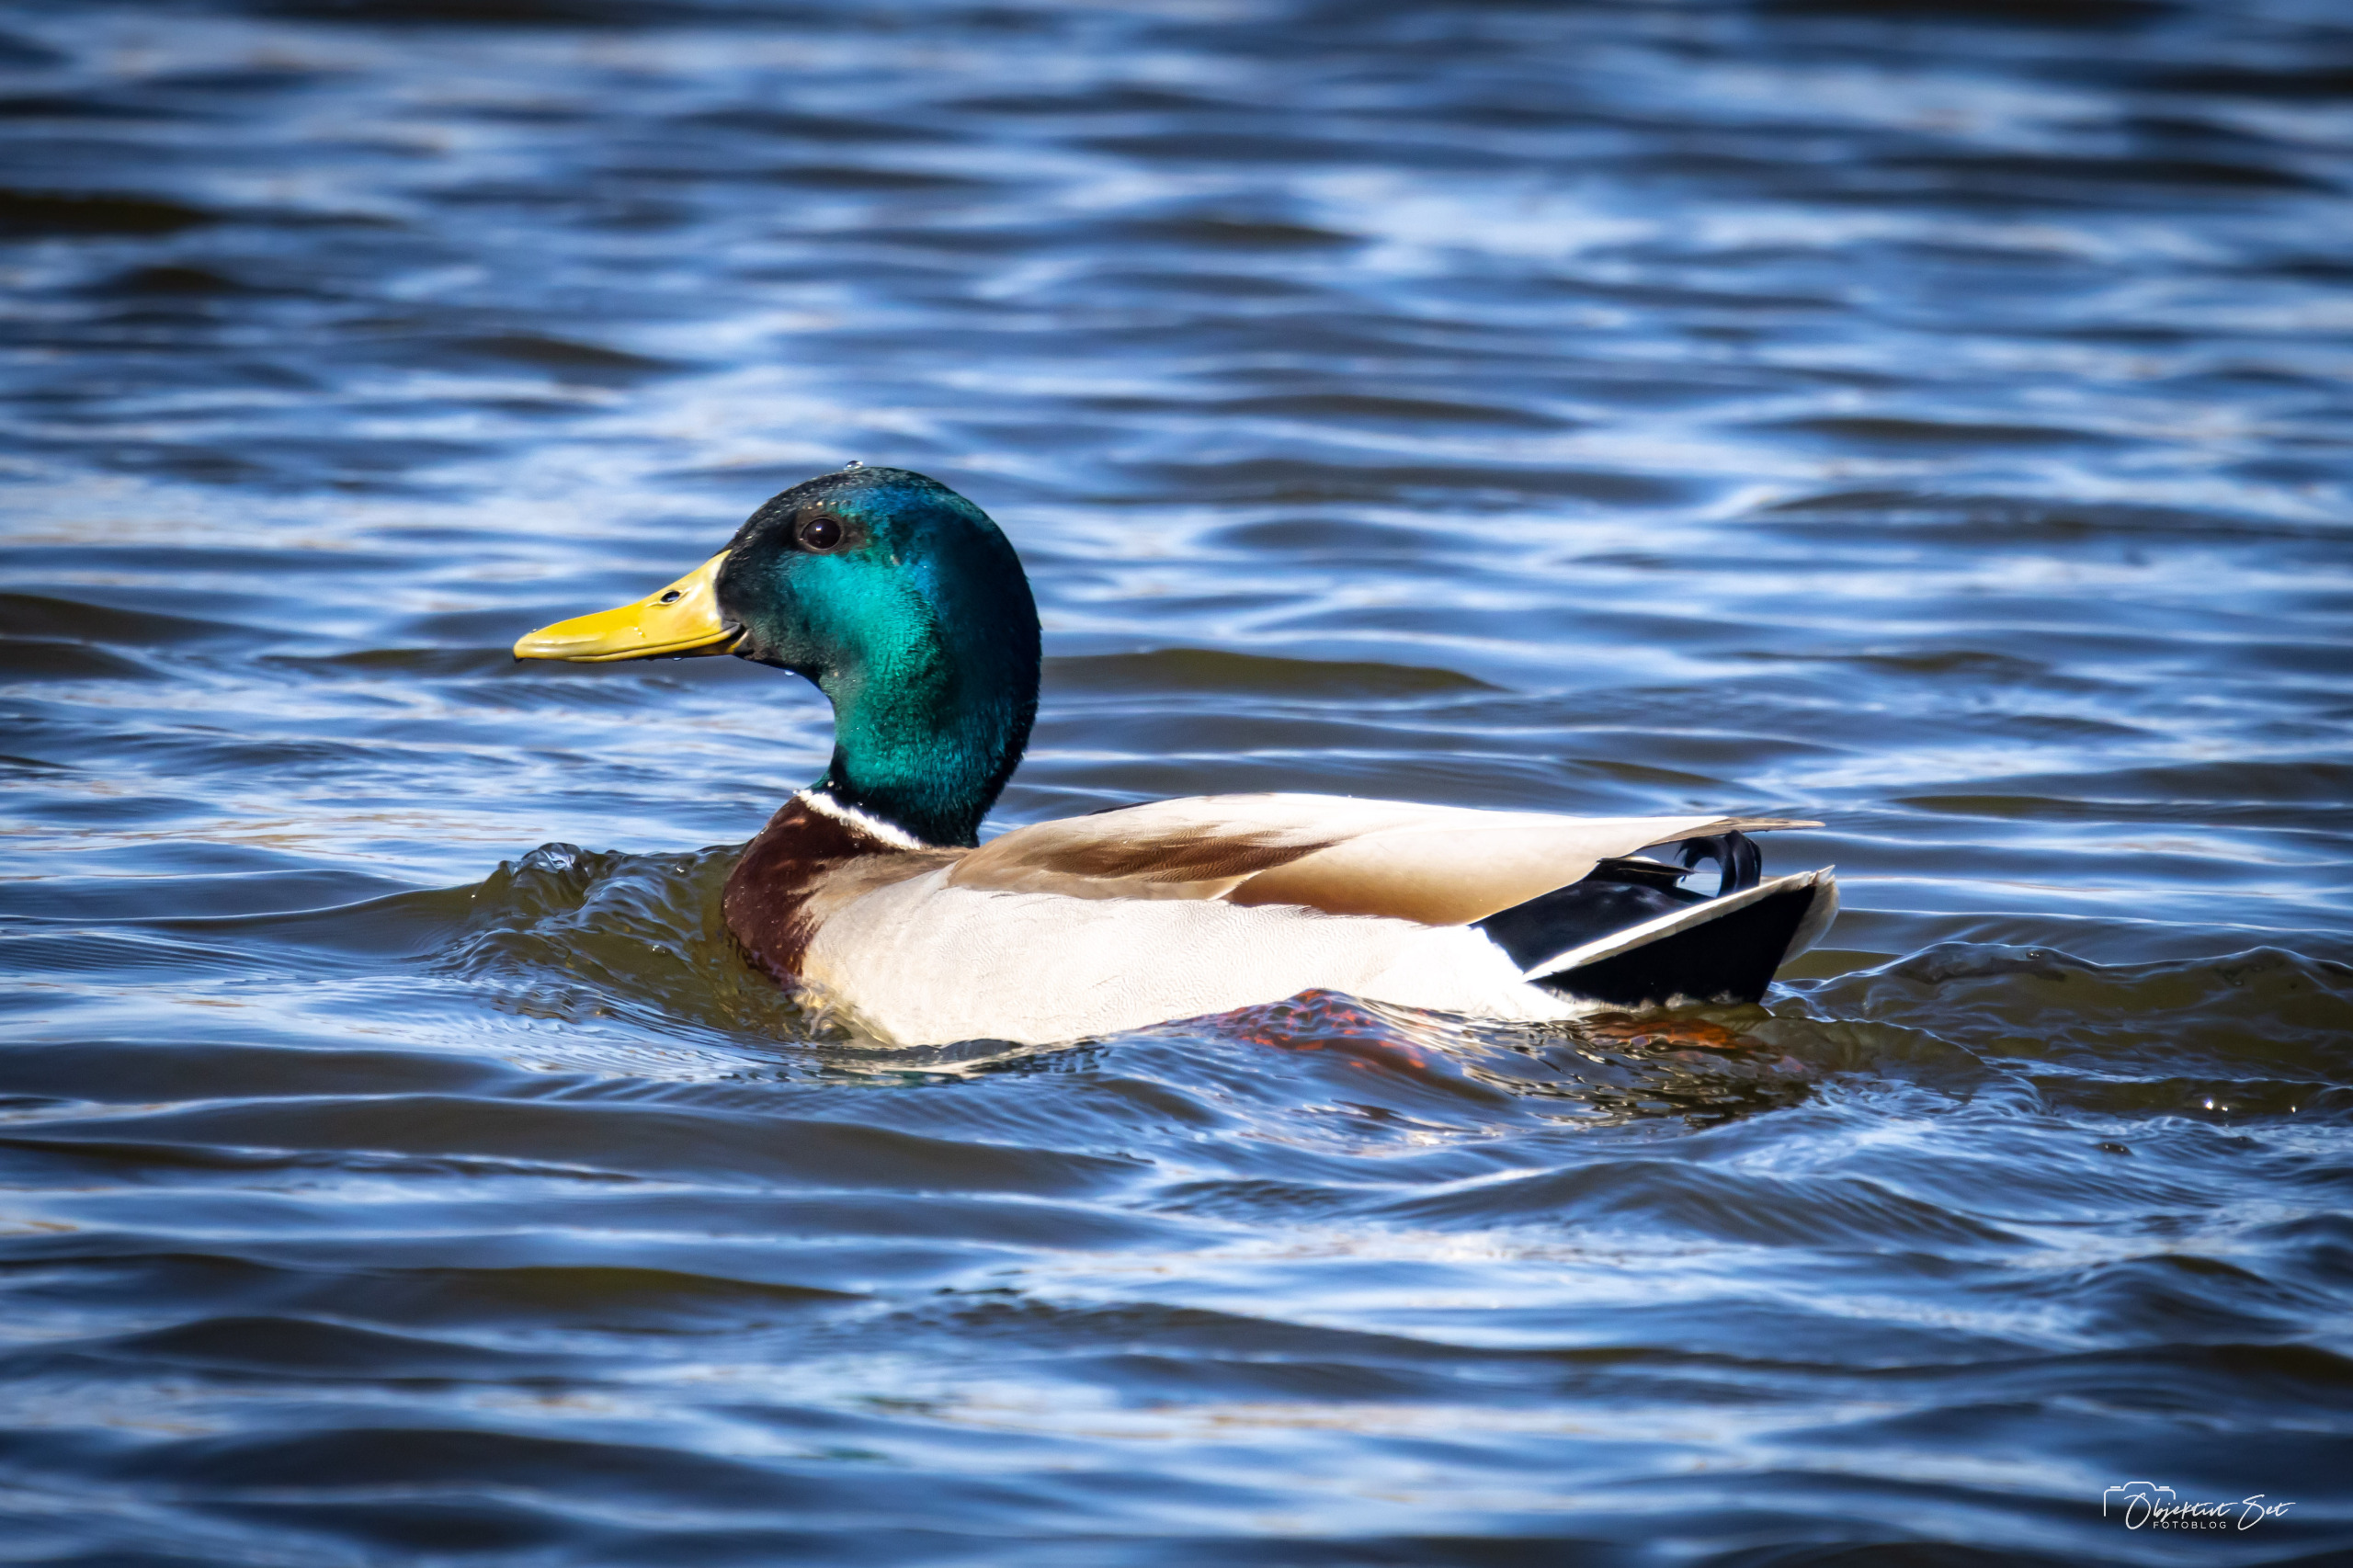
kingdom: Animalia
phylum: Chordata
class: Aves
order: Anseriformes
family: Anatidae
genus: Anas
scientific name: Anas platyrhynchos
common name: Gråand
